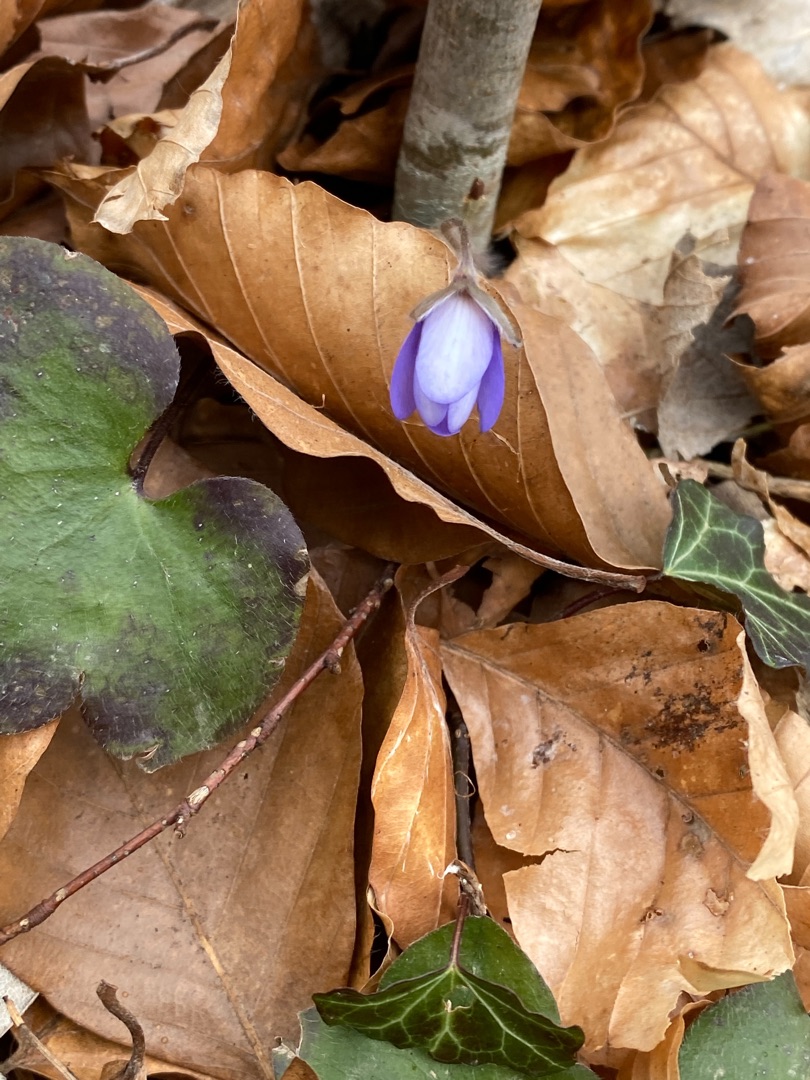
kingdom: Plantae
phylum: Tracheophyta
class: Magnoliopsida
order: Ranunculales
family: Ranunculaceae
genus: Hepatica
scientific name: Hepatica nobilis
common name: Blå anemone
